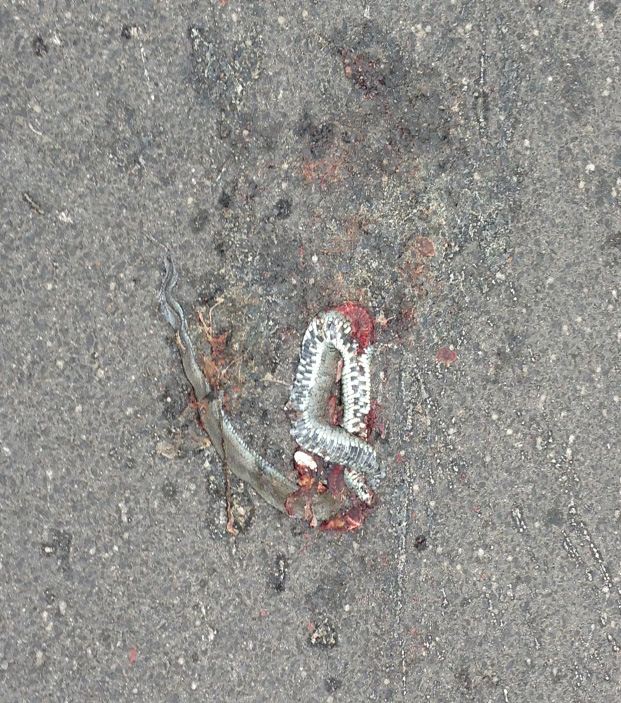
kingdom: Animalia
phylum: Chordata
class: Squamata
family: Colubridae
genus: Natrix
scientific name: Natrix natrix
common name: Grass snake
